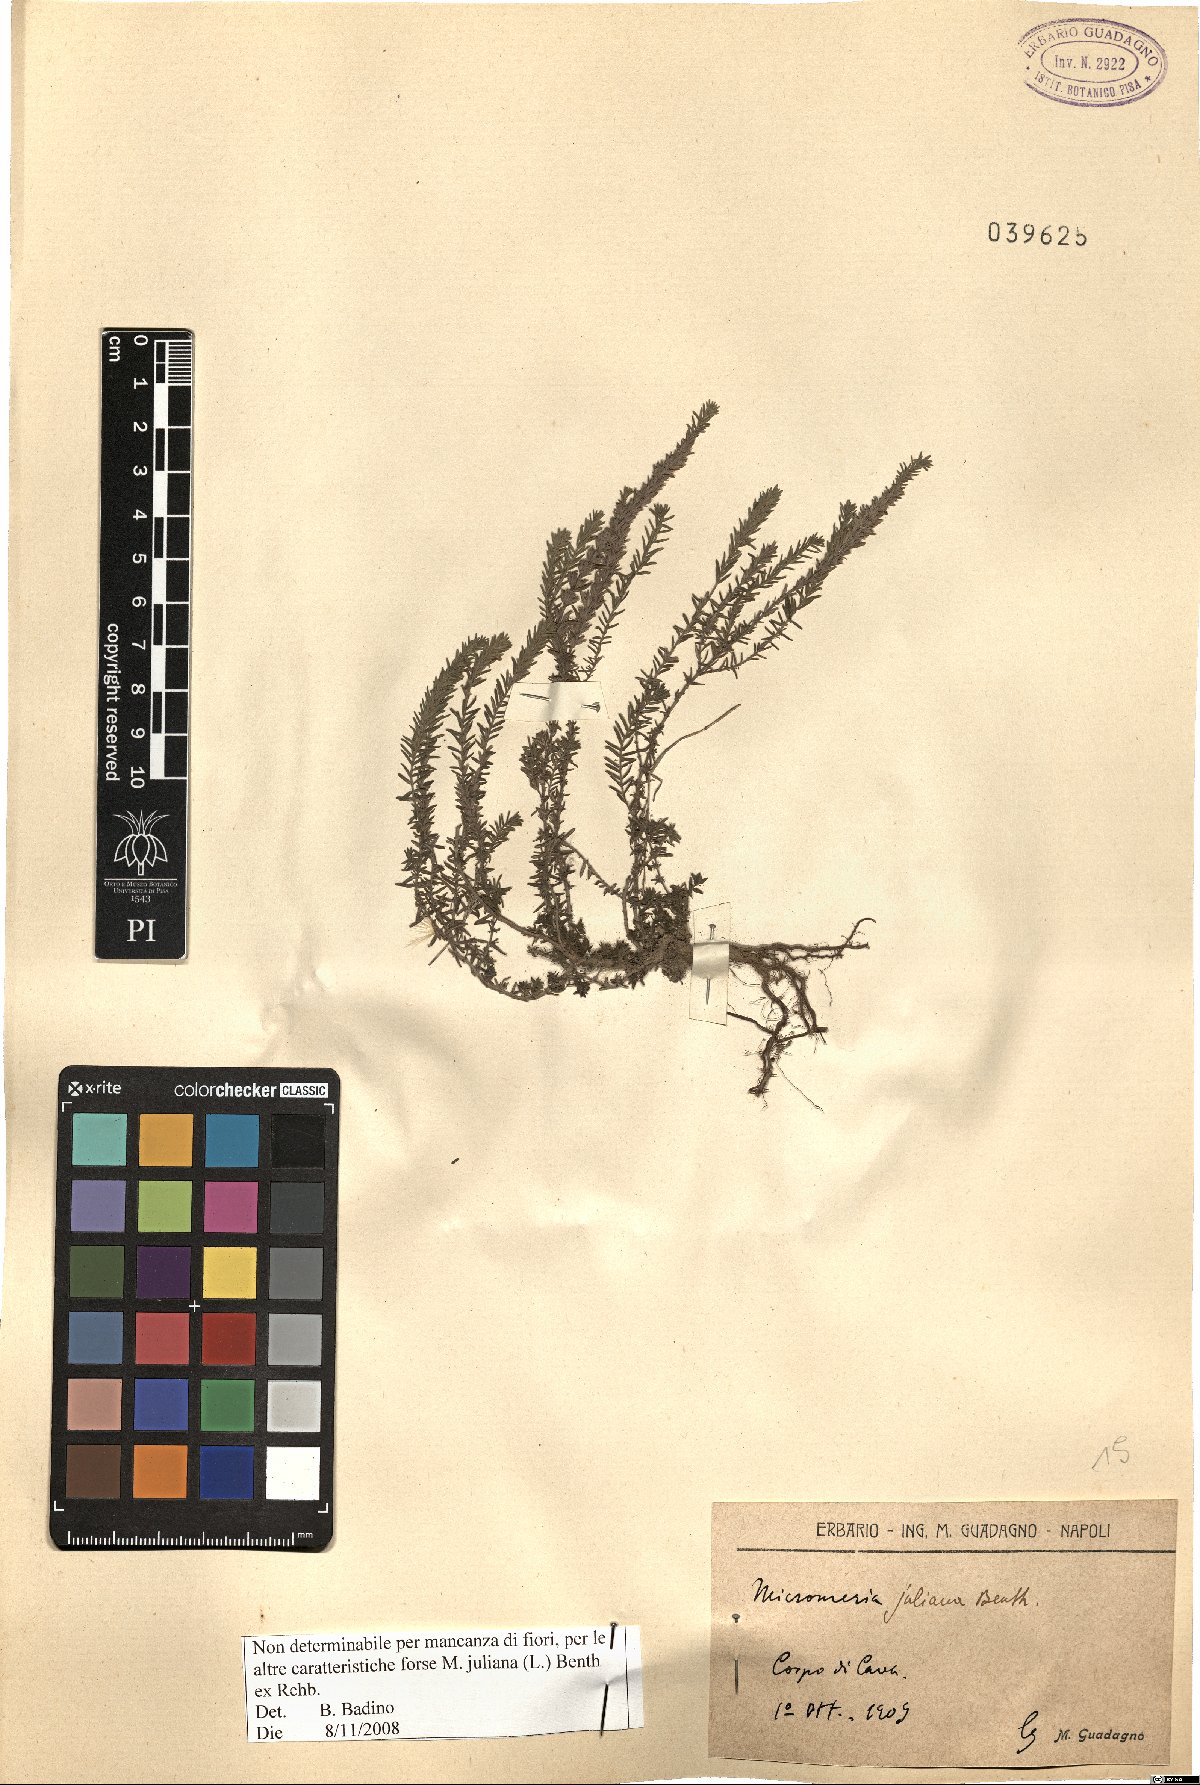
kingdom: Plantae
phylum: Tracheophyta
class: Magnoliopsida
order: Lamiales
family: Lamiaceae
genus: Micromeria
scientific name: Micromeria juliana
